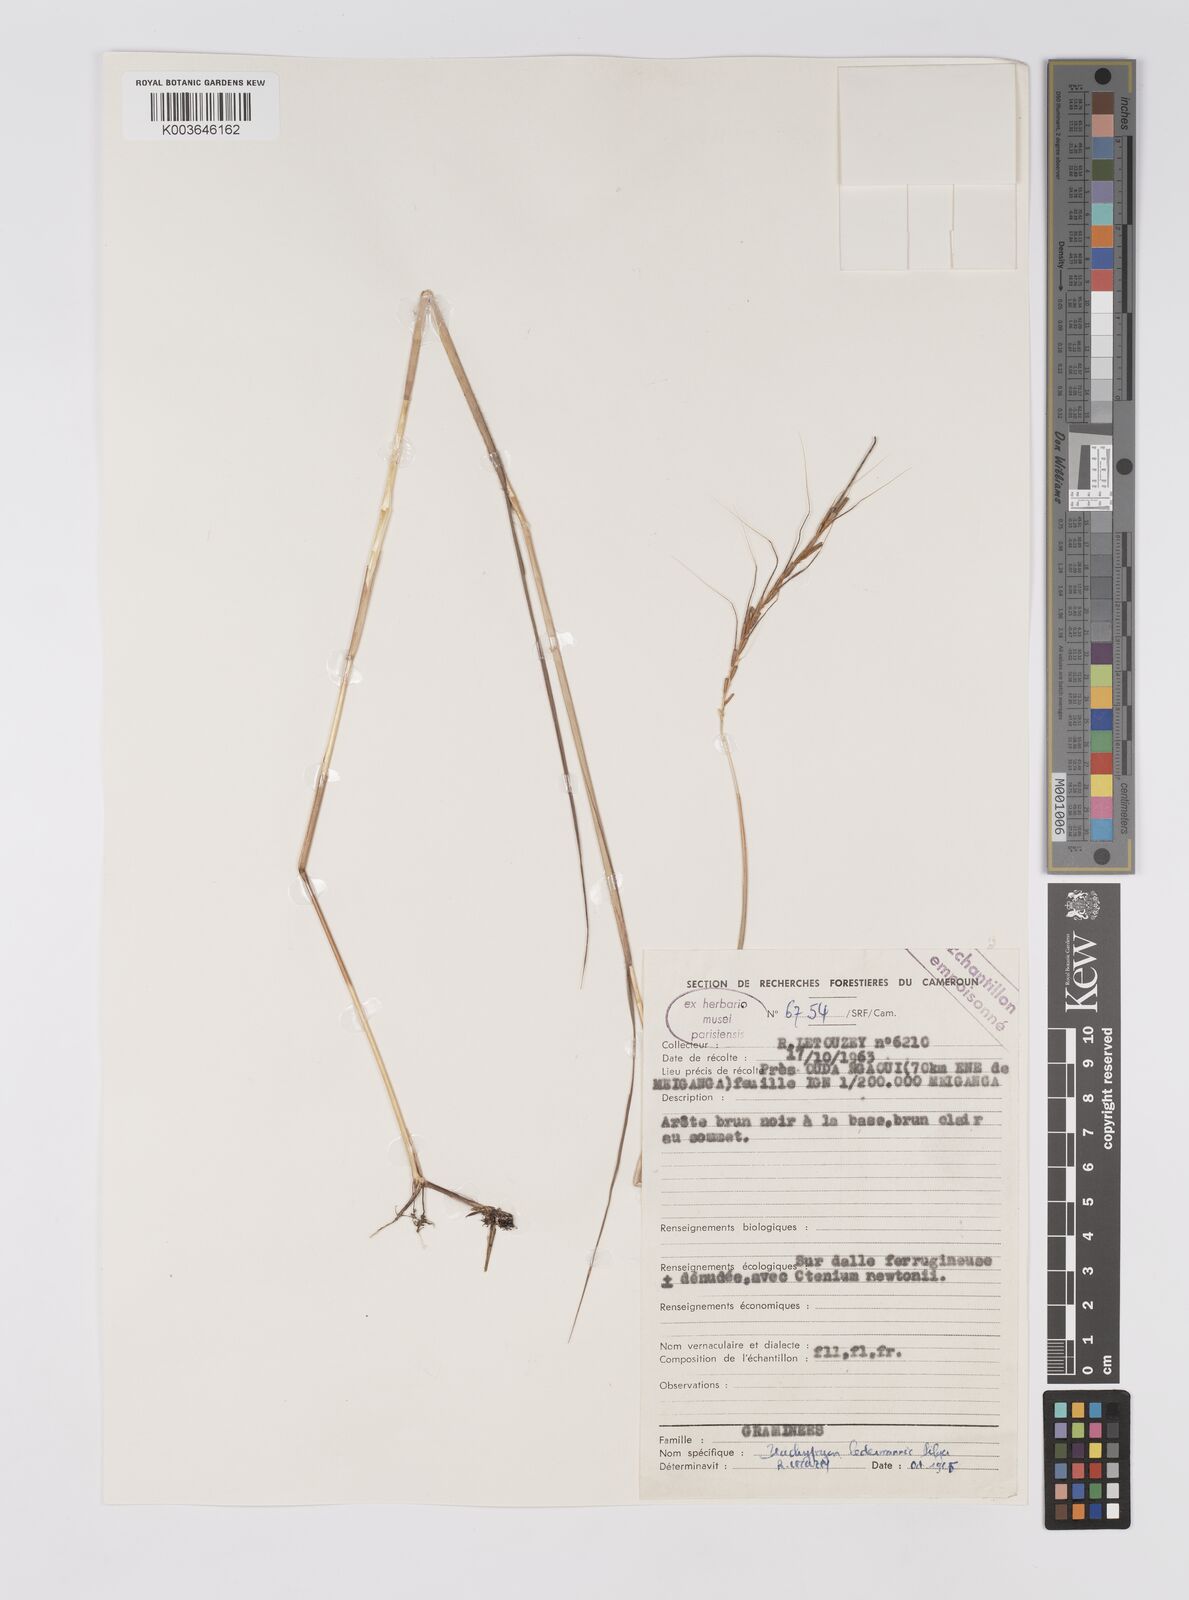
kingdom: Plantae
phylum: Tracheophyta
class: Liliopsida
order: Poales
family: Poaceae
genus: Trachypogon
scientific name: Trachypogon chevalieri
